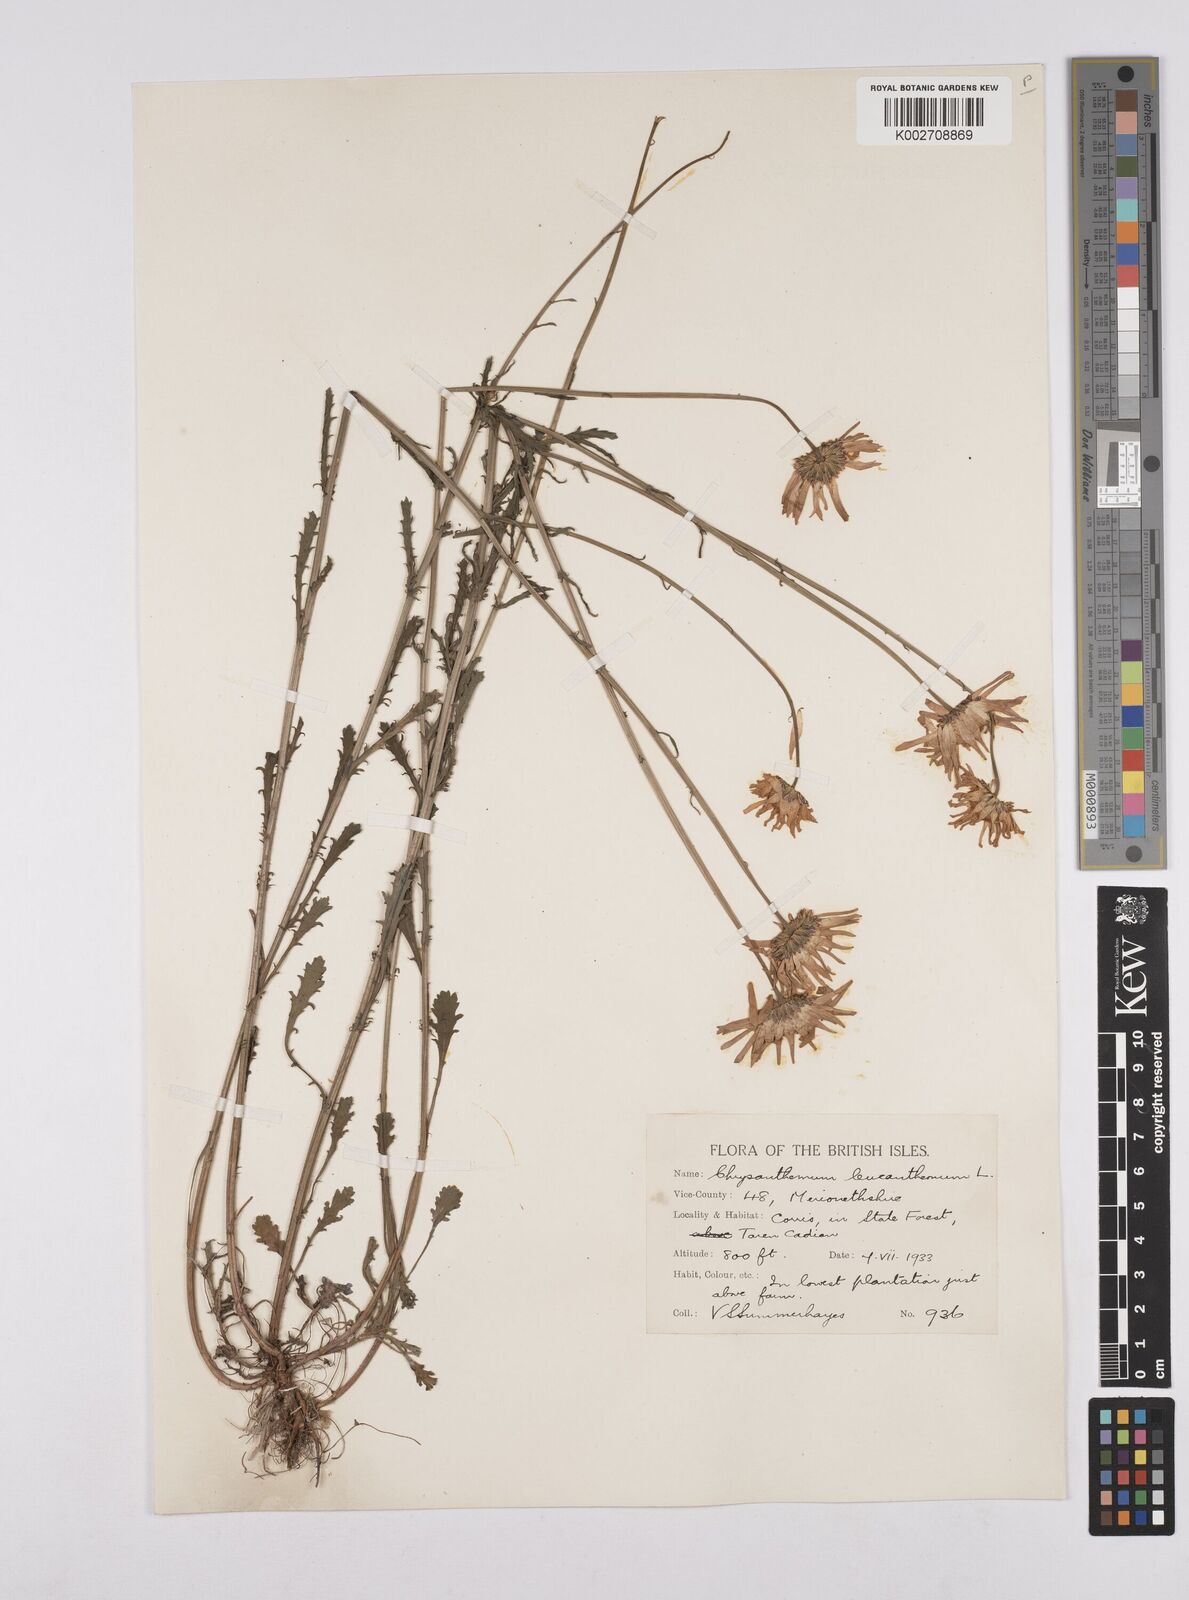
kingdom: Plantae
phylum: Tracheophyta
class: Magnoliopsida
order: Asterales
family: Asteraceae
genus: Leucanthemum
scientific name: Leucanthemum
